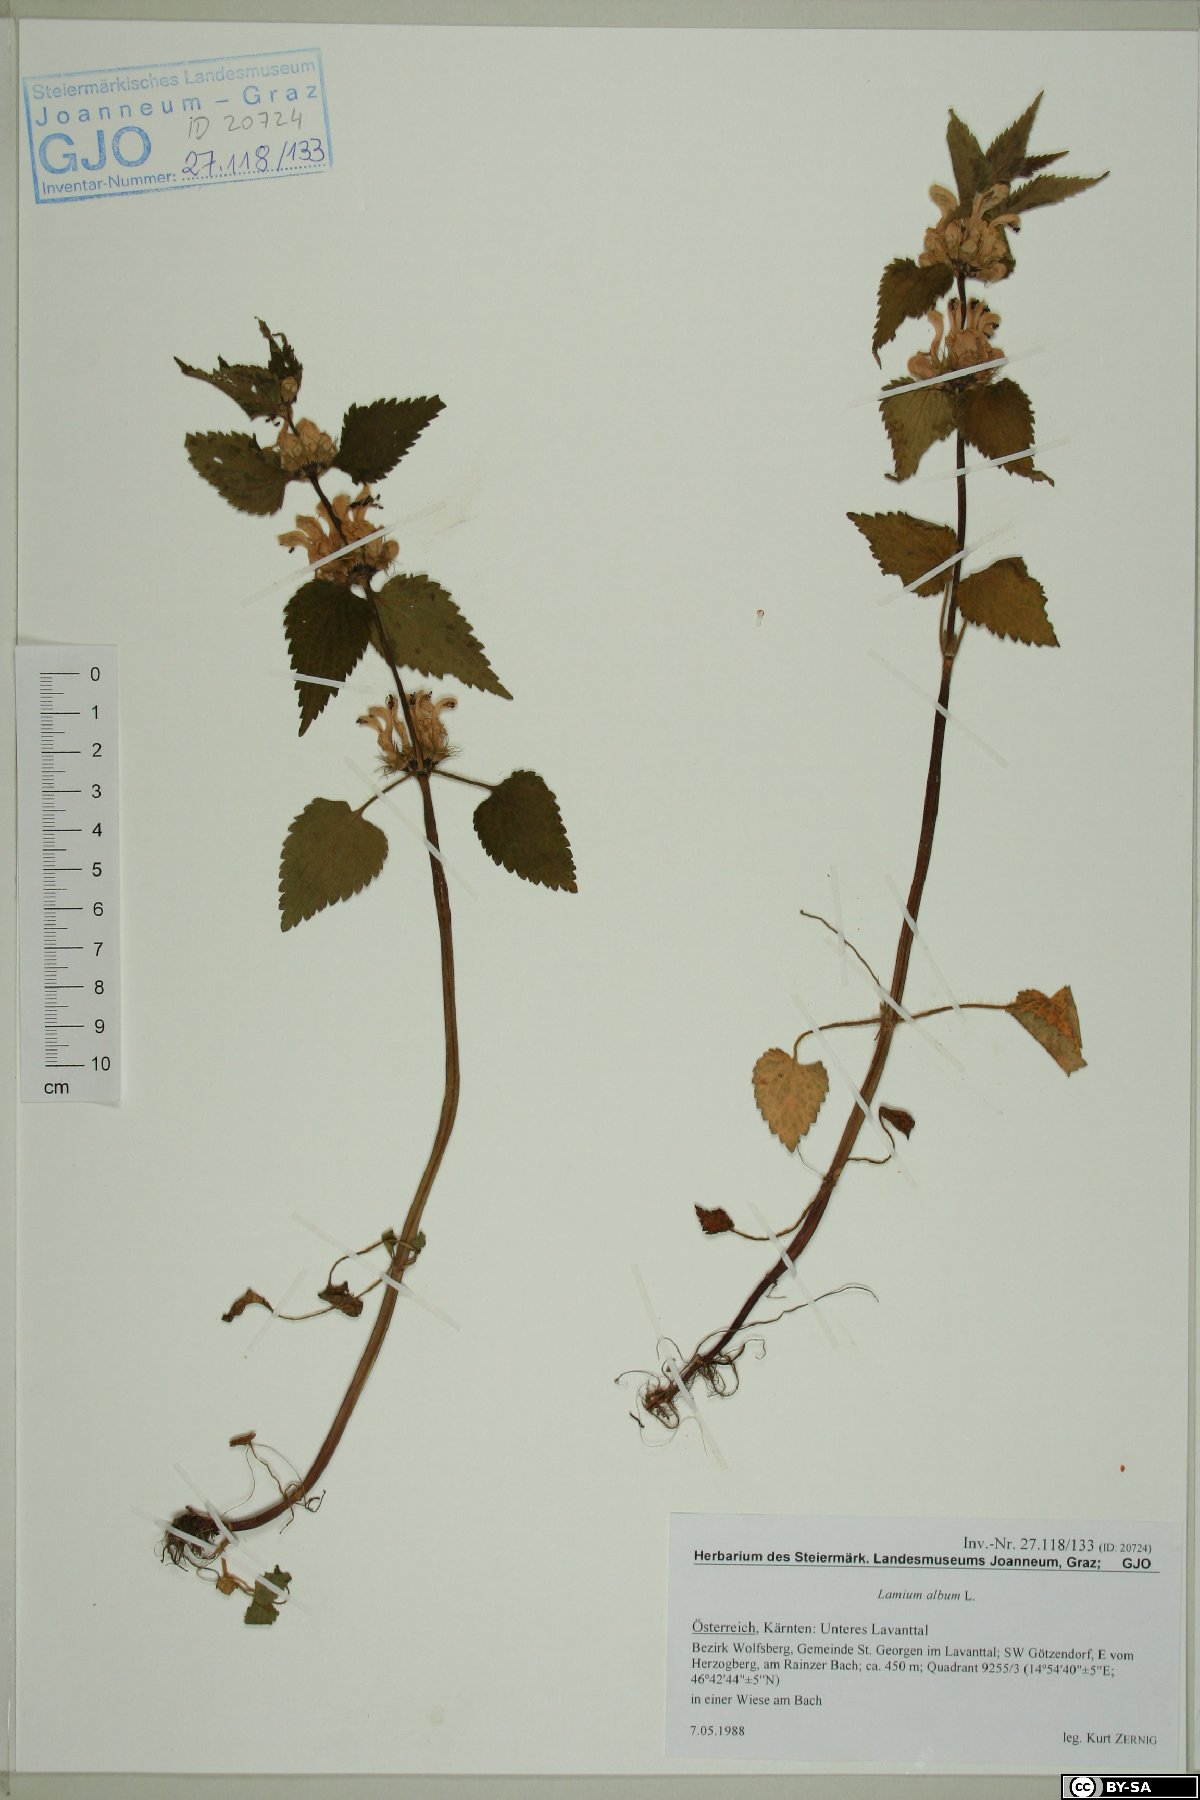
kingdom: Plantae
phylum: Tracheophyta
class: Magnoliopsida
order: Lamiales
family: Lamiaceae
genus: Lamium
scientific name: Lamium album
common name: White dead-nettle
